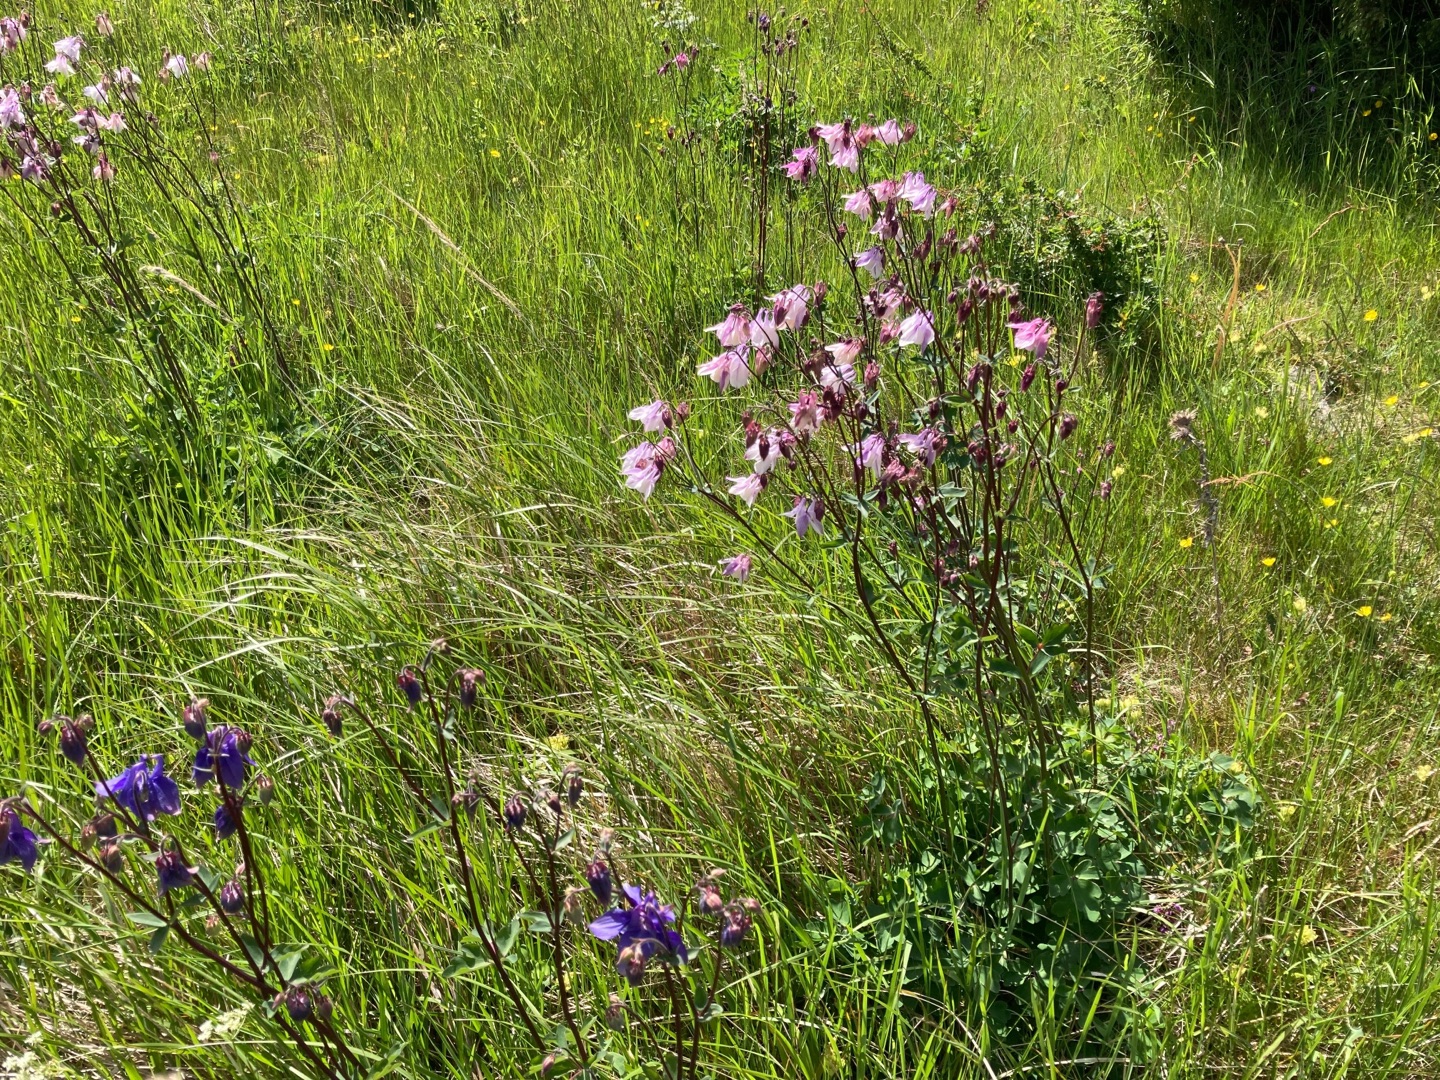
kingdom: Plantae
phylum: Tracheophyta
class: Magnoliopsida
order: Ranunculales
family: Ranunculaceae
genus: Aquilegia
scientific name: Aquilegia vulgaris
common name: Akeleje
